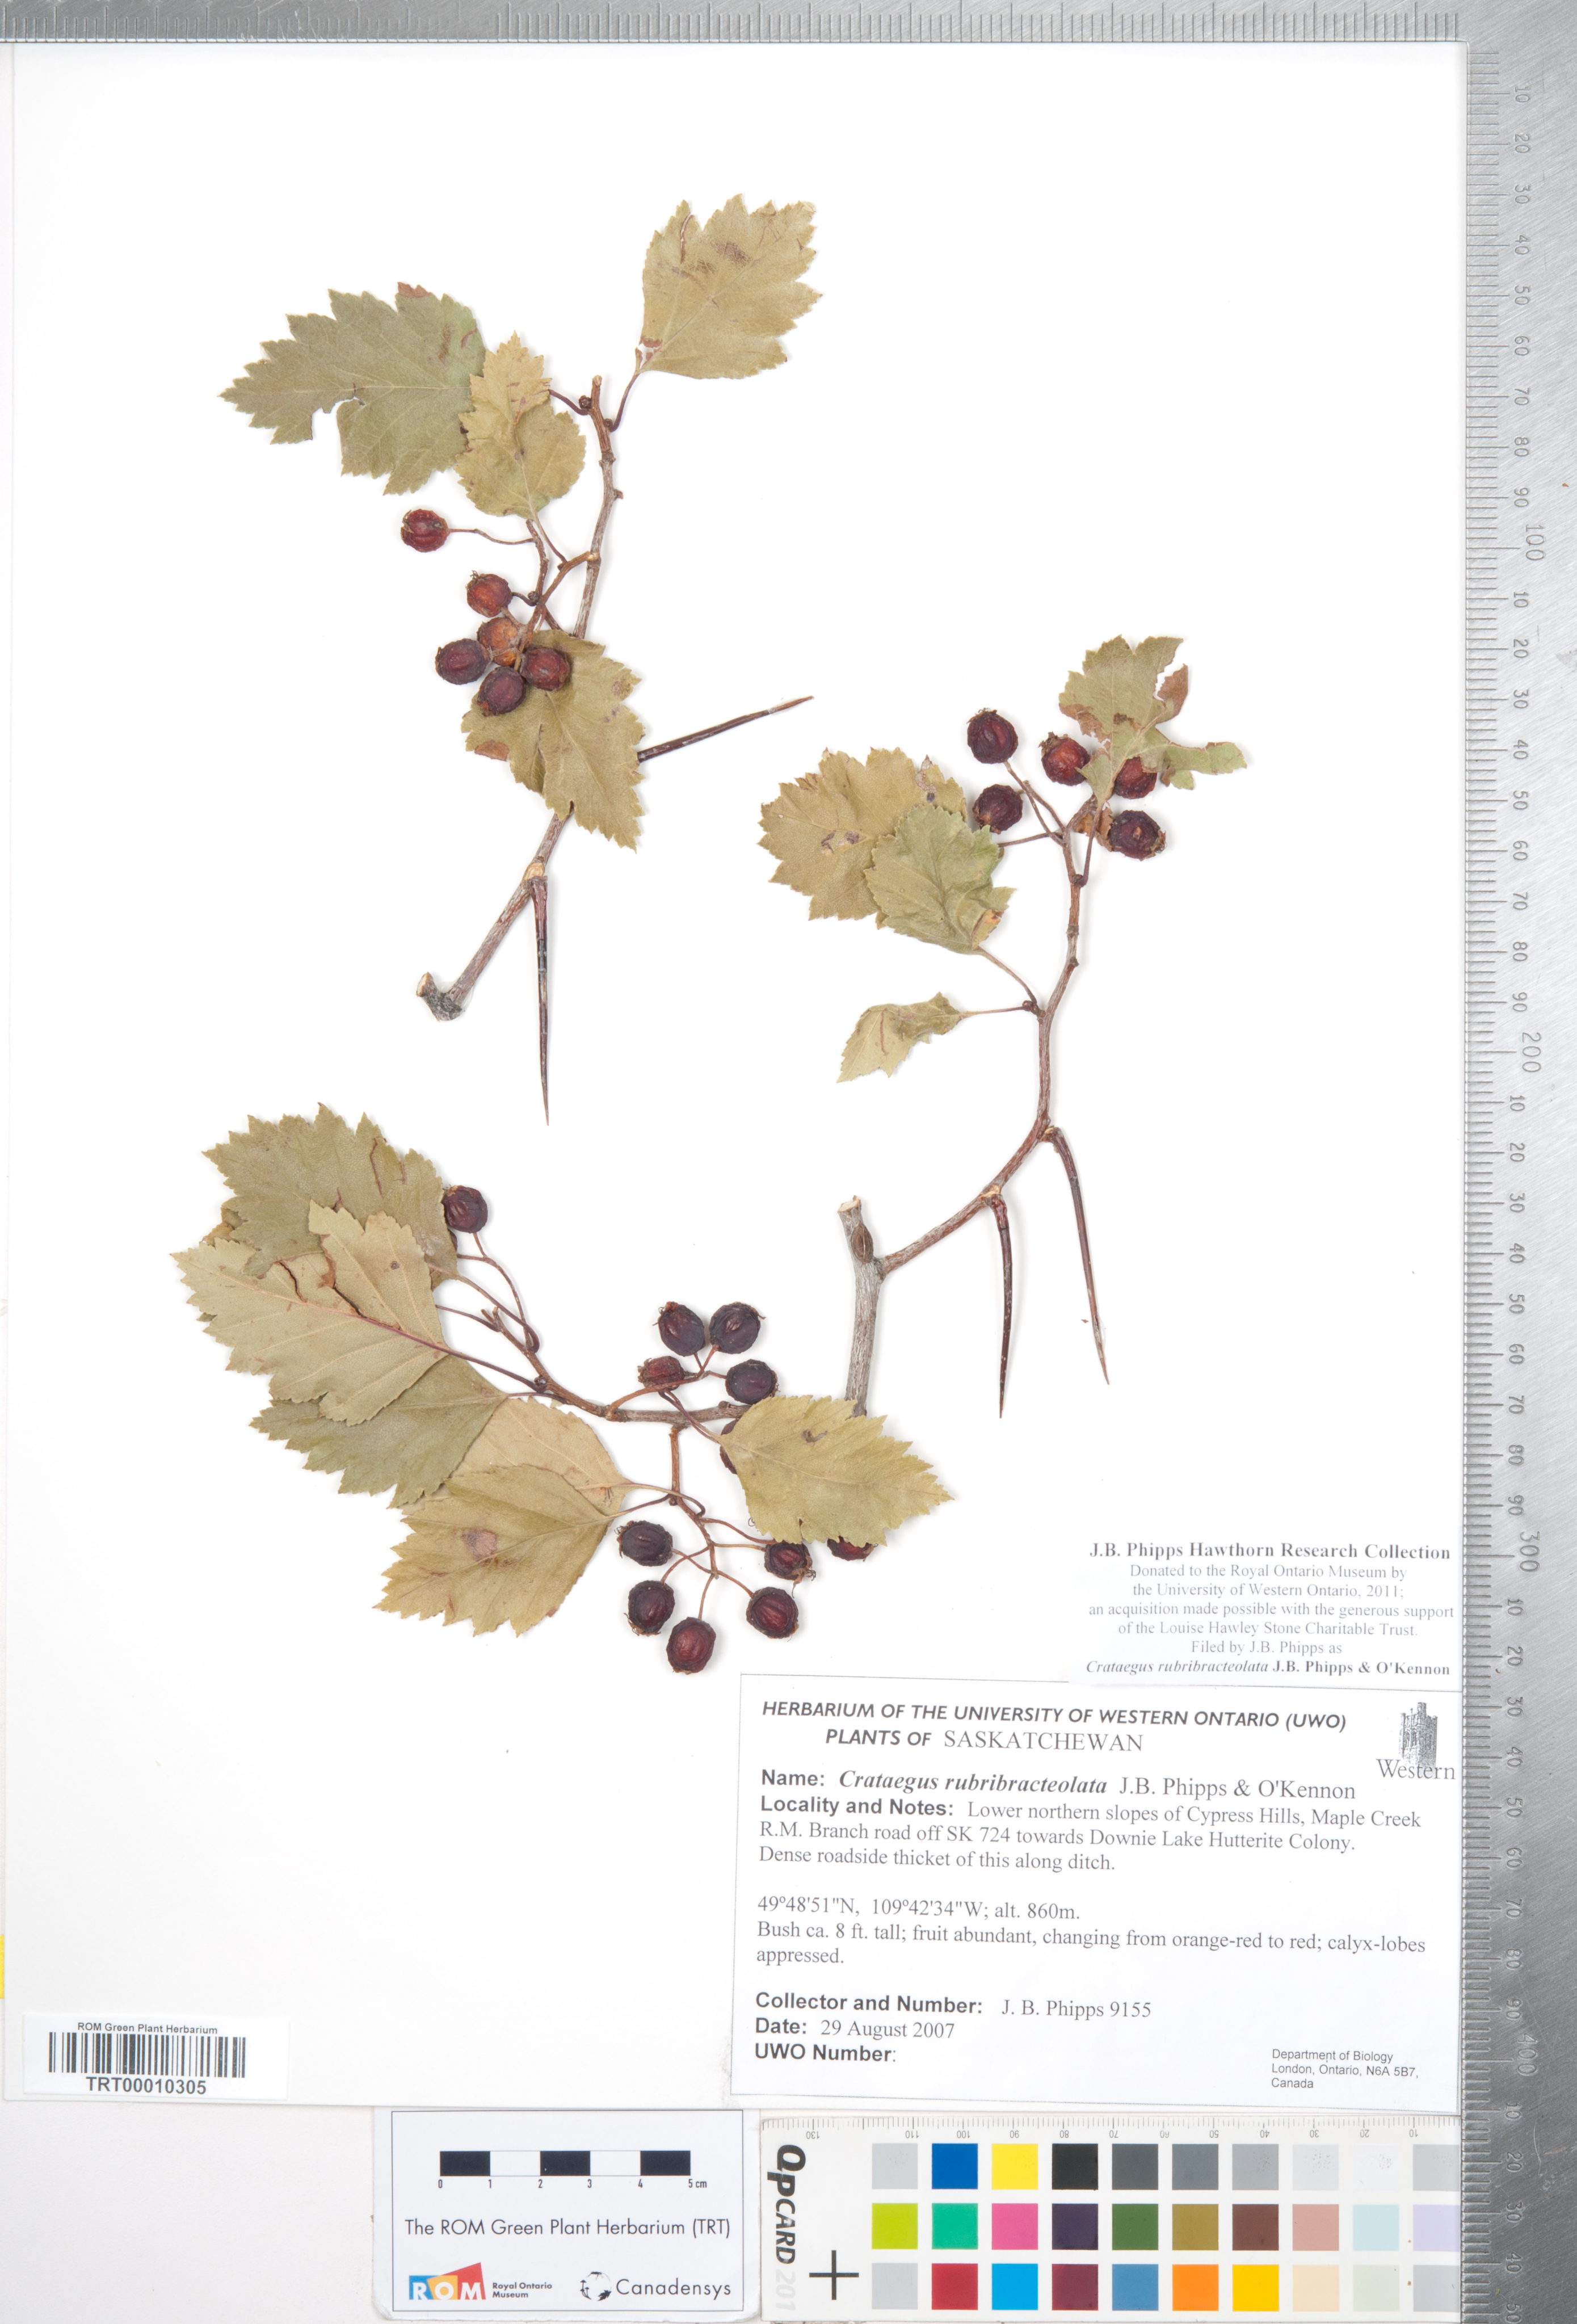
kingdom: Plantae
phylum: Tracheophyta
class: Magnoliopsida
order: Rosales
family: Rosaceae
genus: Crataegus
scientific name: Crataegus rubribracteolata
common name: Red bracteole hawthorn
